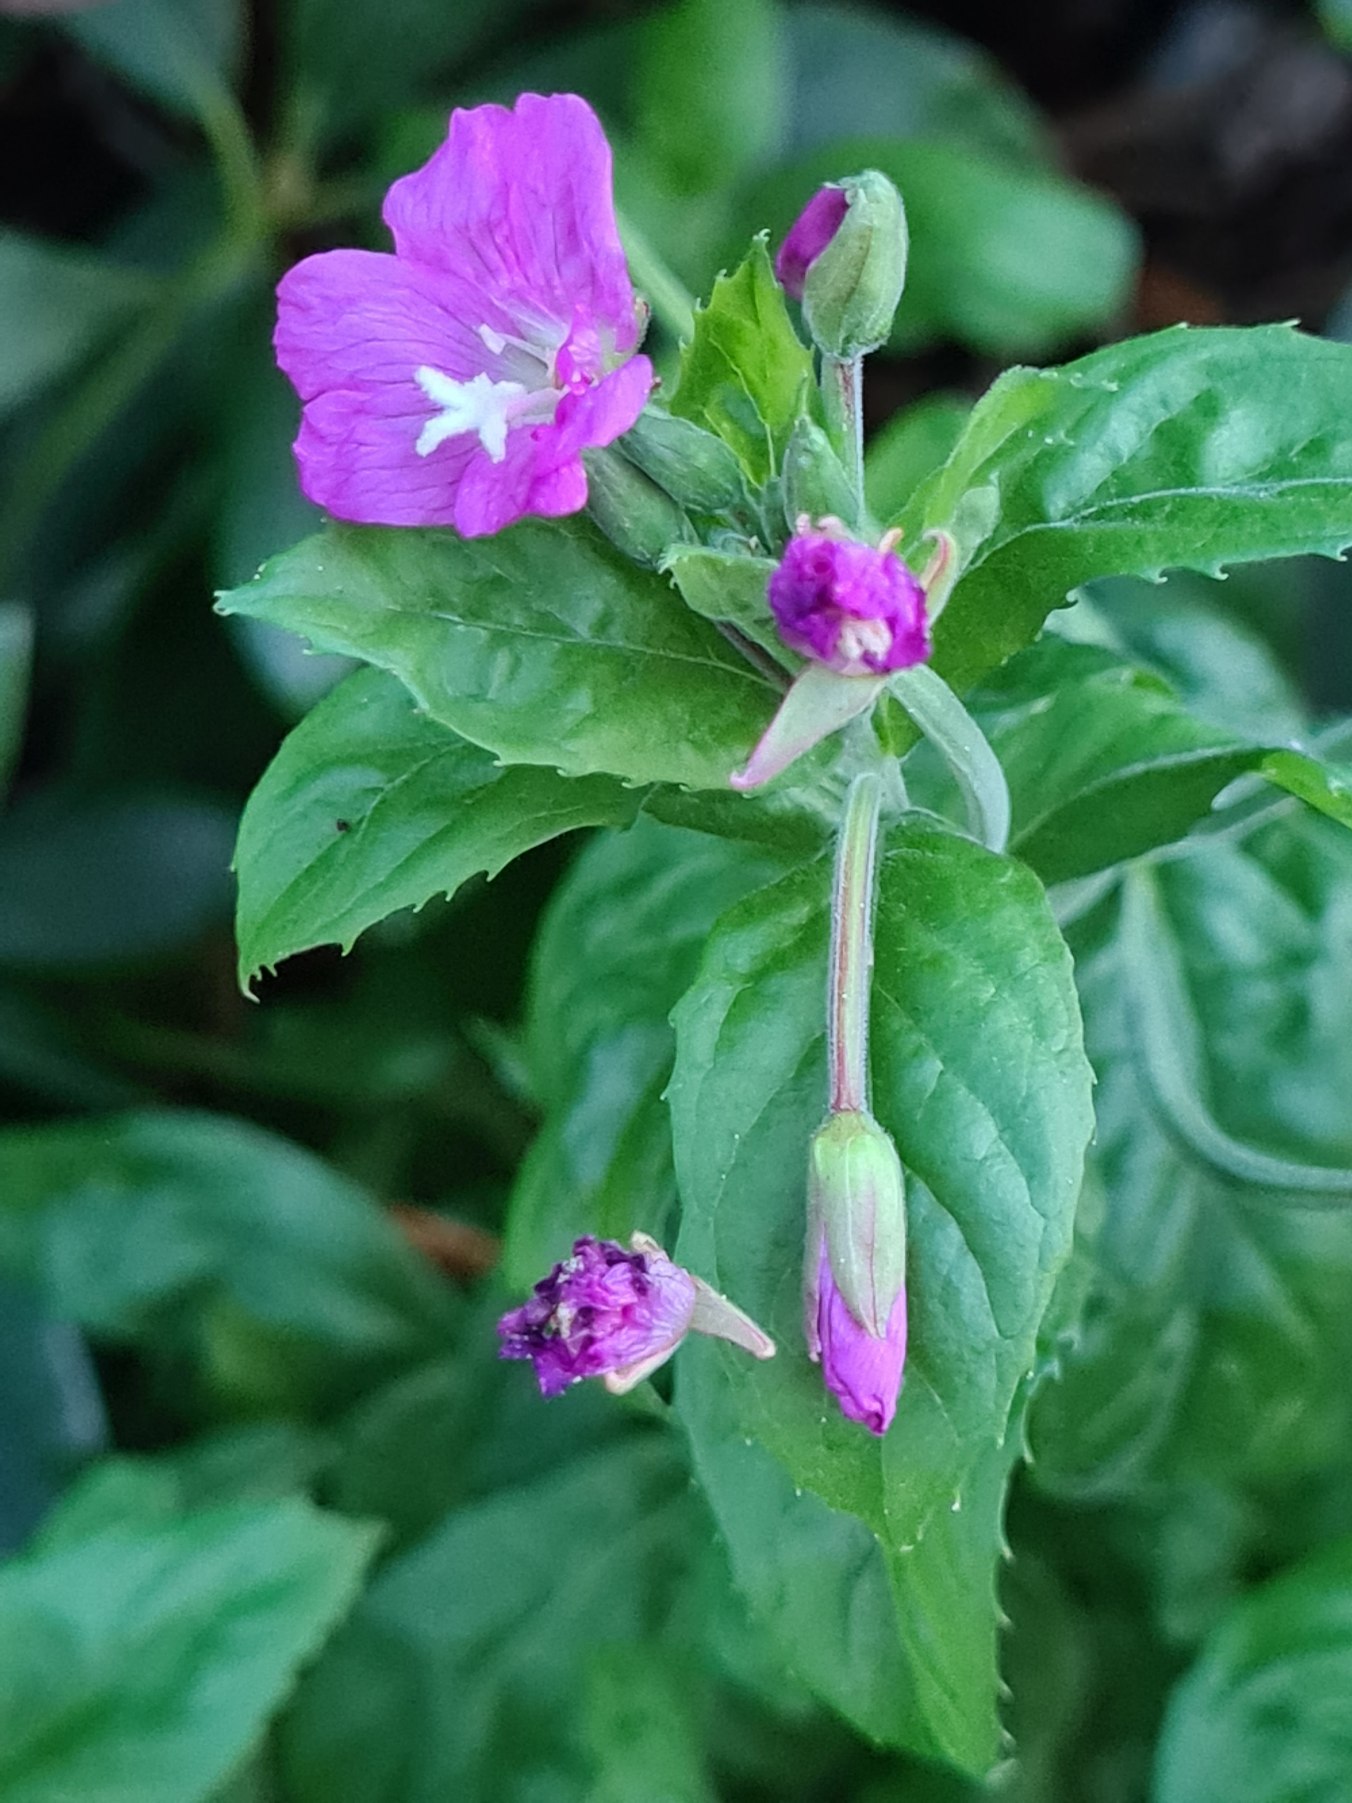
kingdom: Plantae
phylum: Tracheophyta
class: Magnoliopsida
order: Myrtales
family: Onagraceae
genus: Epilobium
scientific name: Epilobium hirsutum
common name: Lådden dueurt
